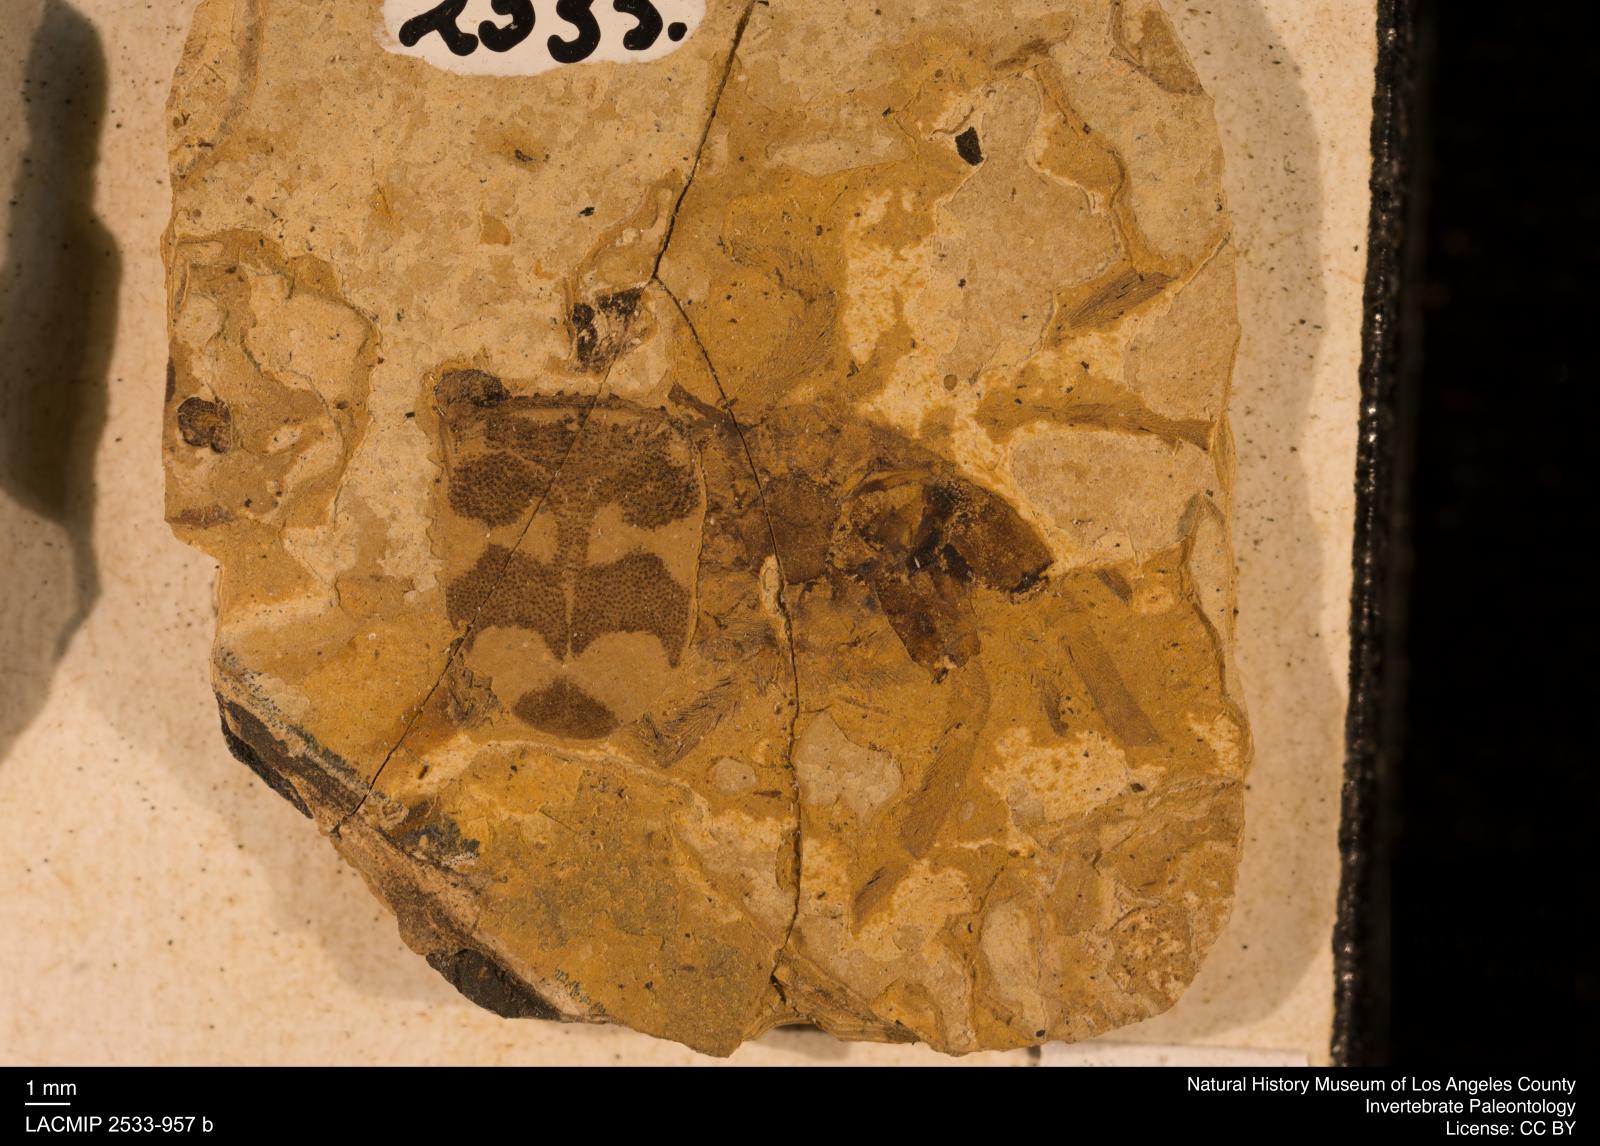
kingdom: Animalia
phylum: Arthropoda
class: Arachnida
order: Araneae
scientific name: Araneae
